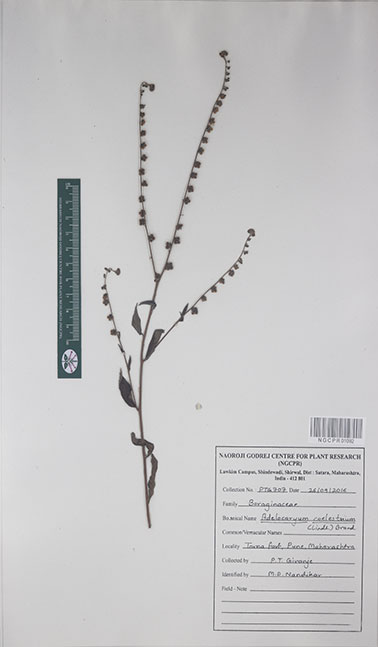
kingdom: Plantae
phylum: Tracheophyta
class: Magnoliopsida
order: Boraginales
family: Boraginaceae
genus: Paracaryum
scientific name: Paracaryum coelestinum
